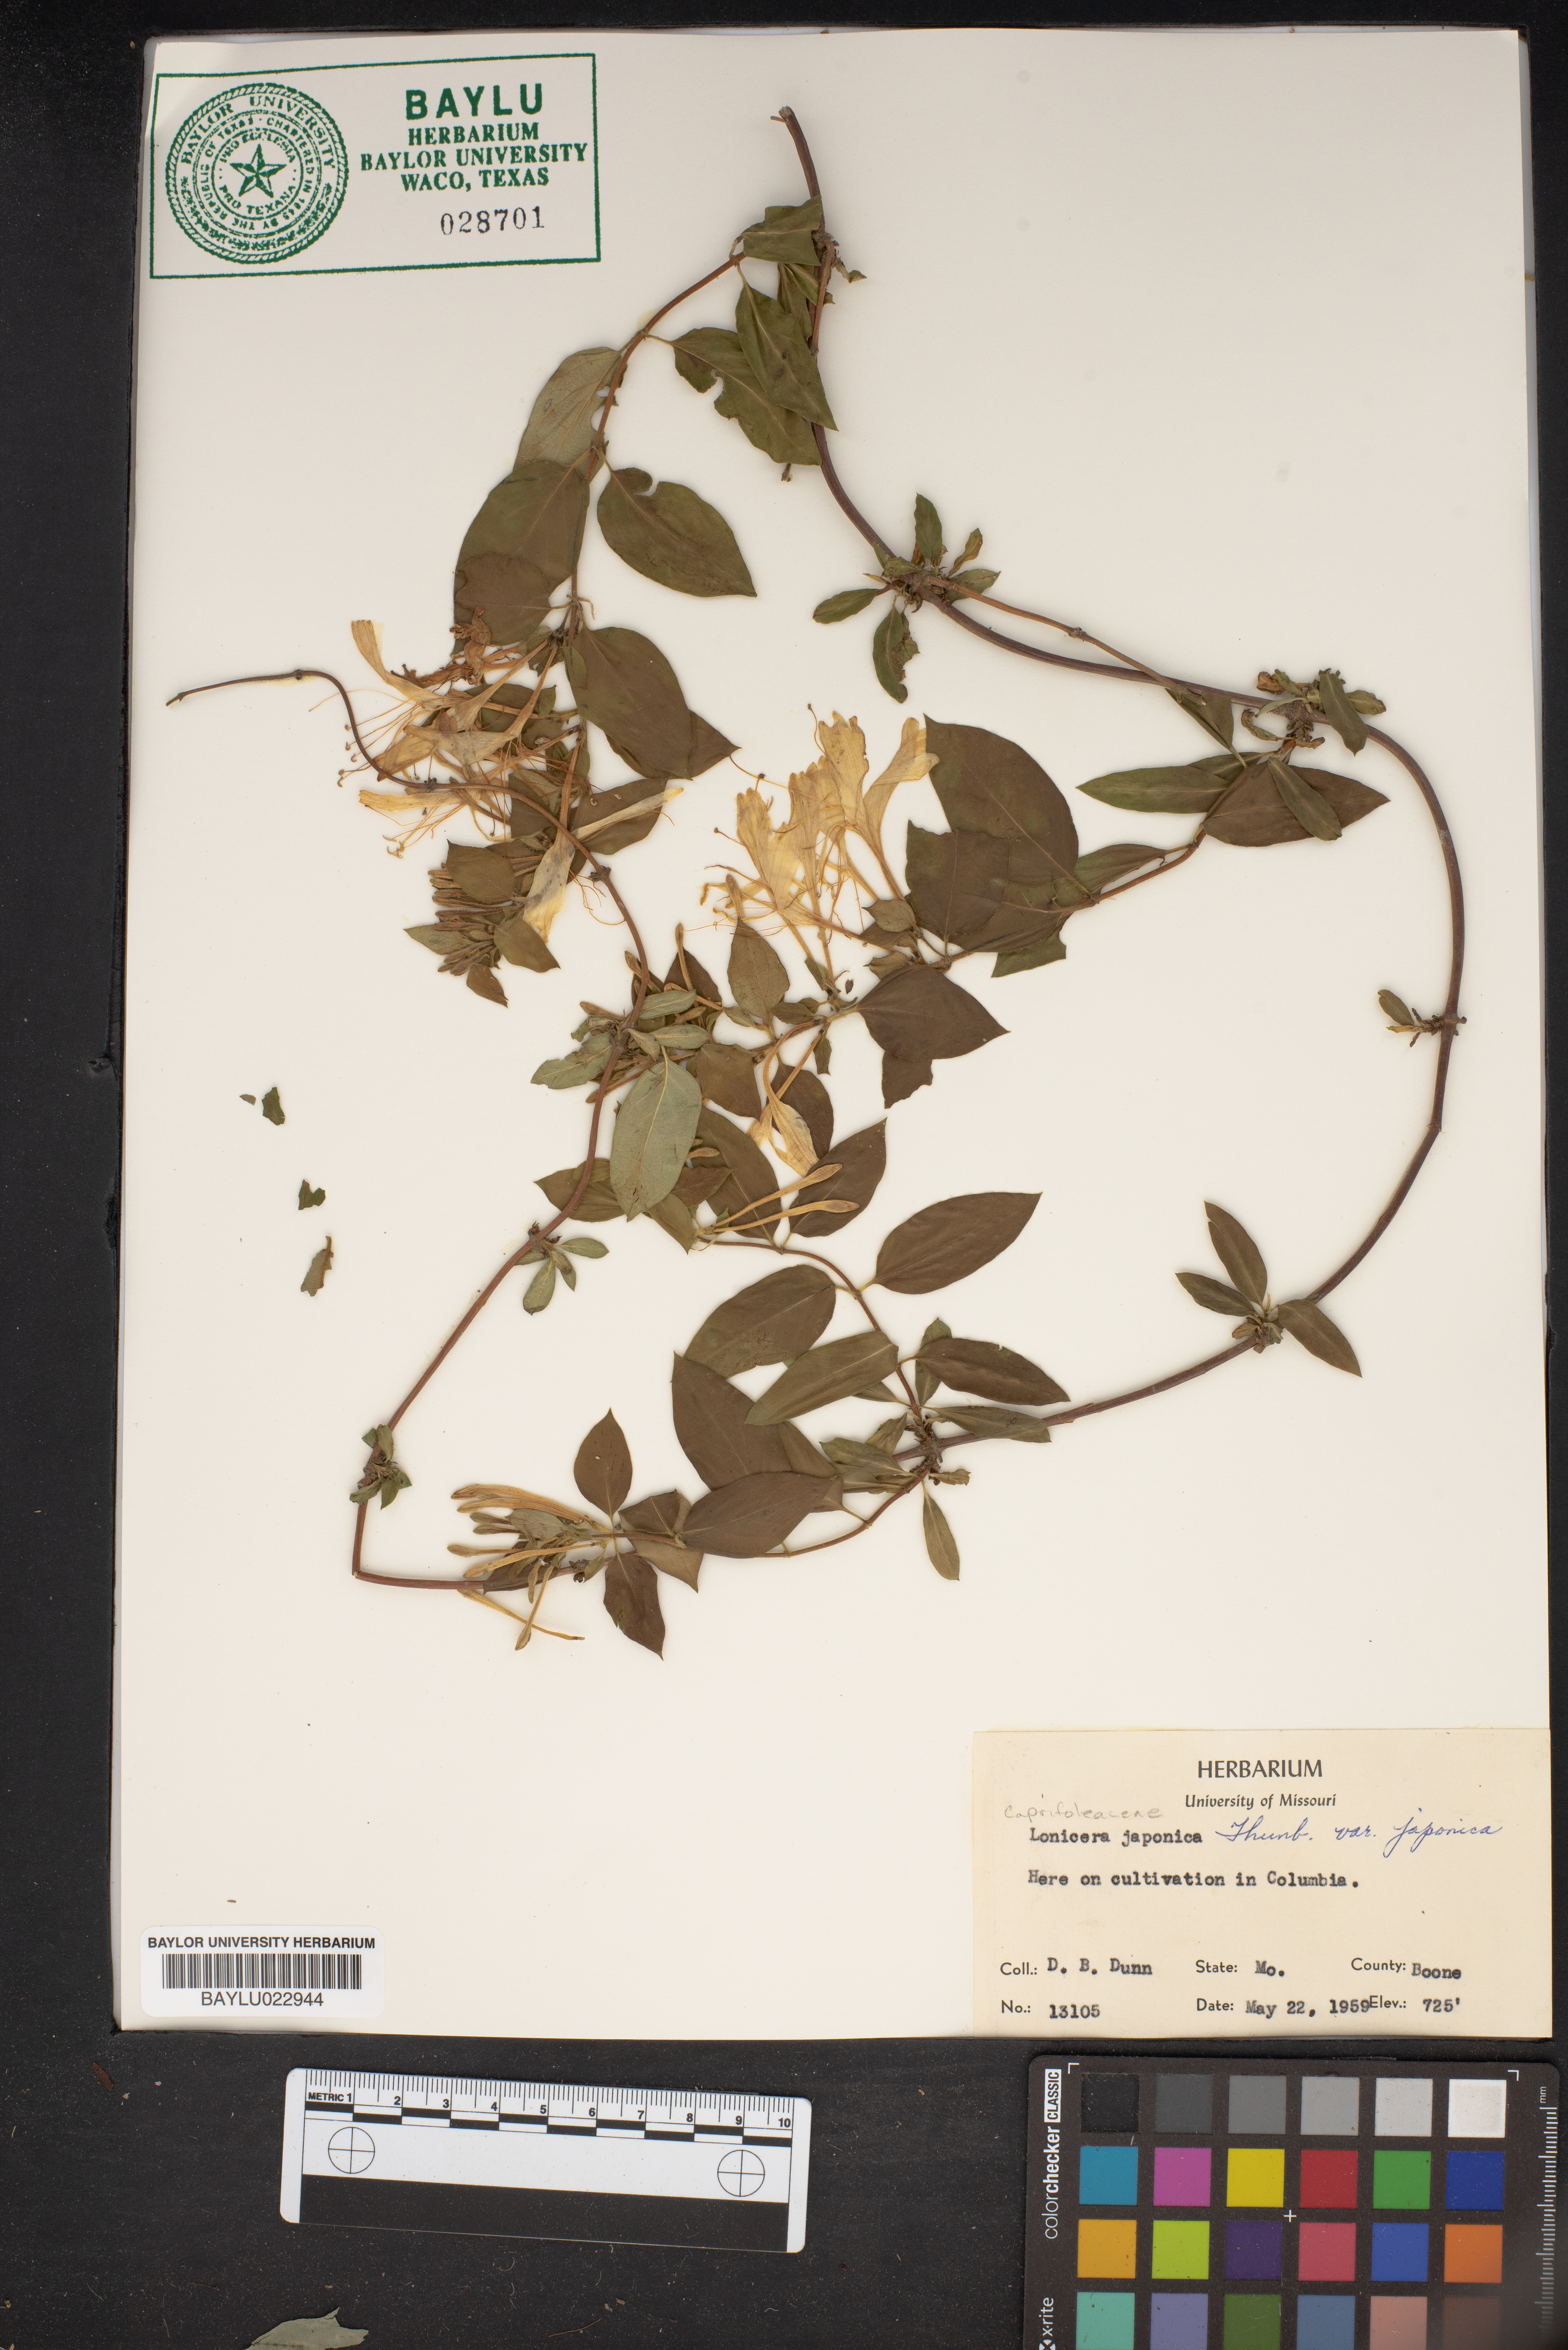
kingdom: Plantae
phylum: Tracheophyta
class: Magnoliopsida
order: Dipsacales
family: Caprifoliaceae
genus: Lonicera
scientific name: Lonicera japonica
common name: Japanese honeysuckle
